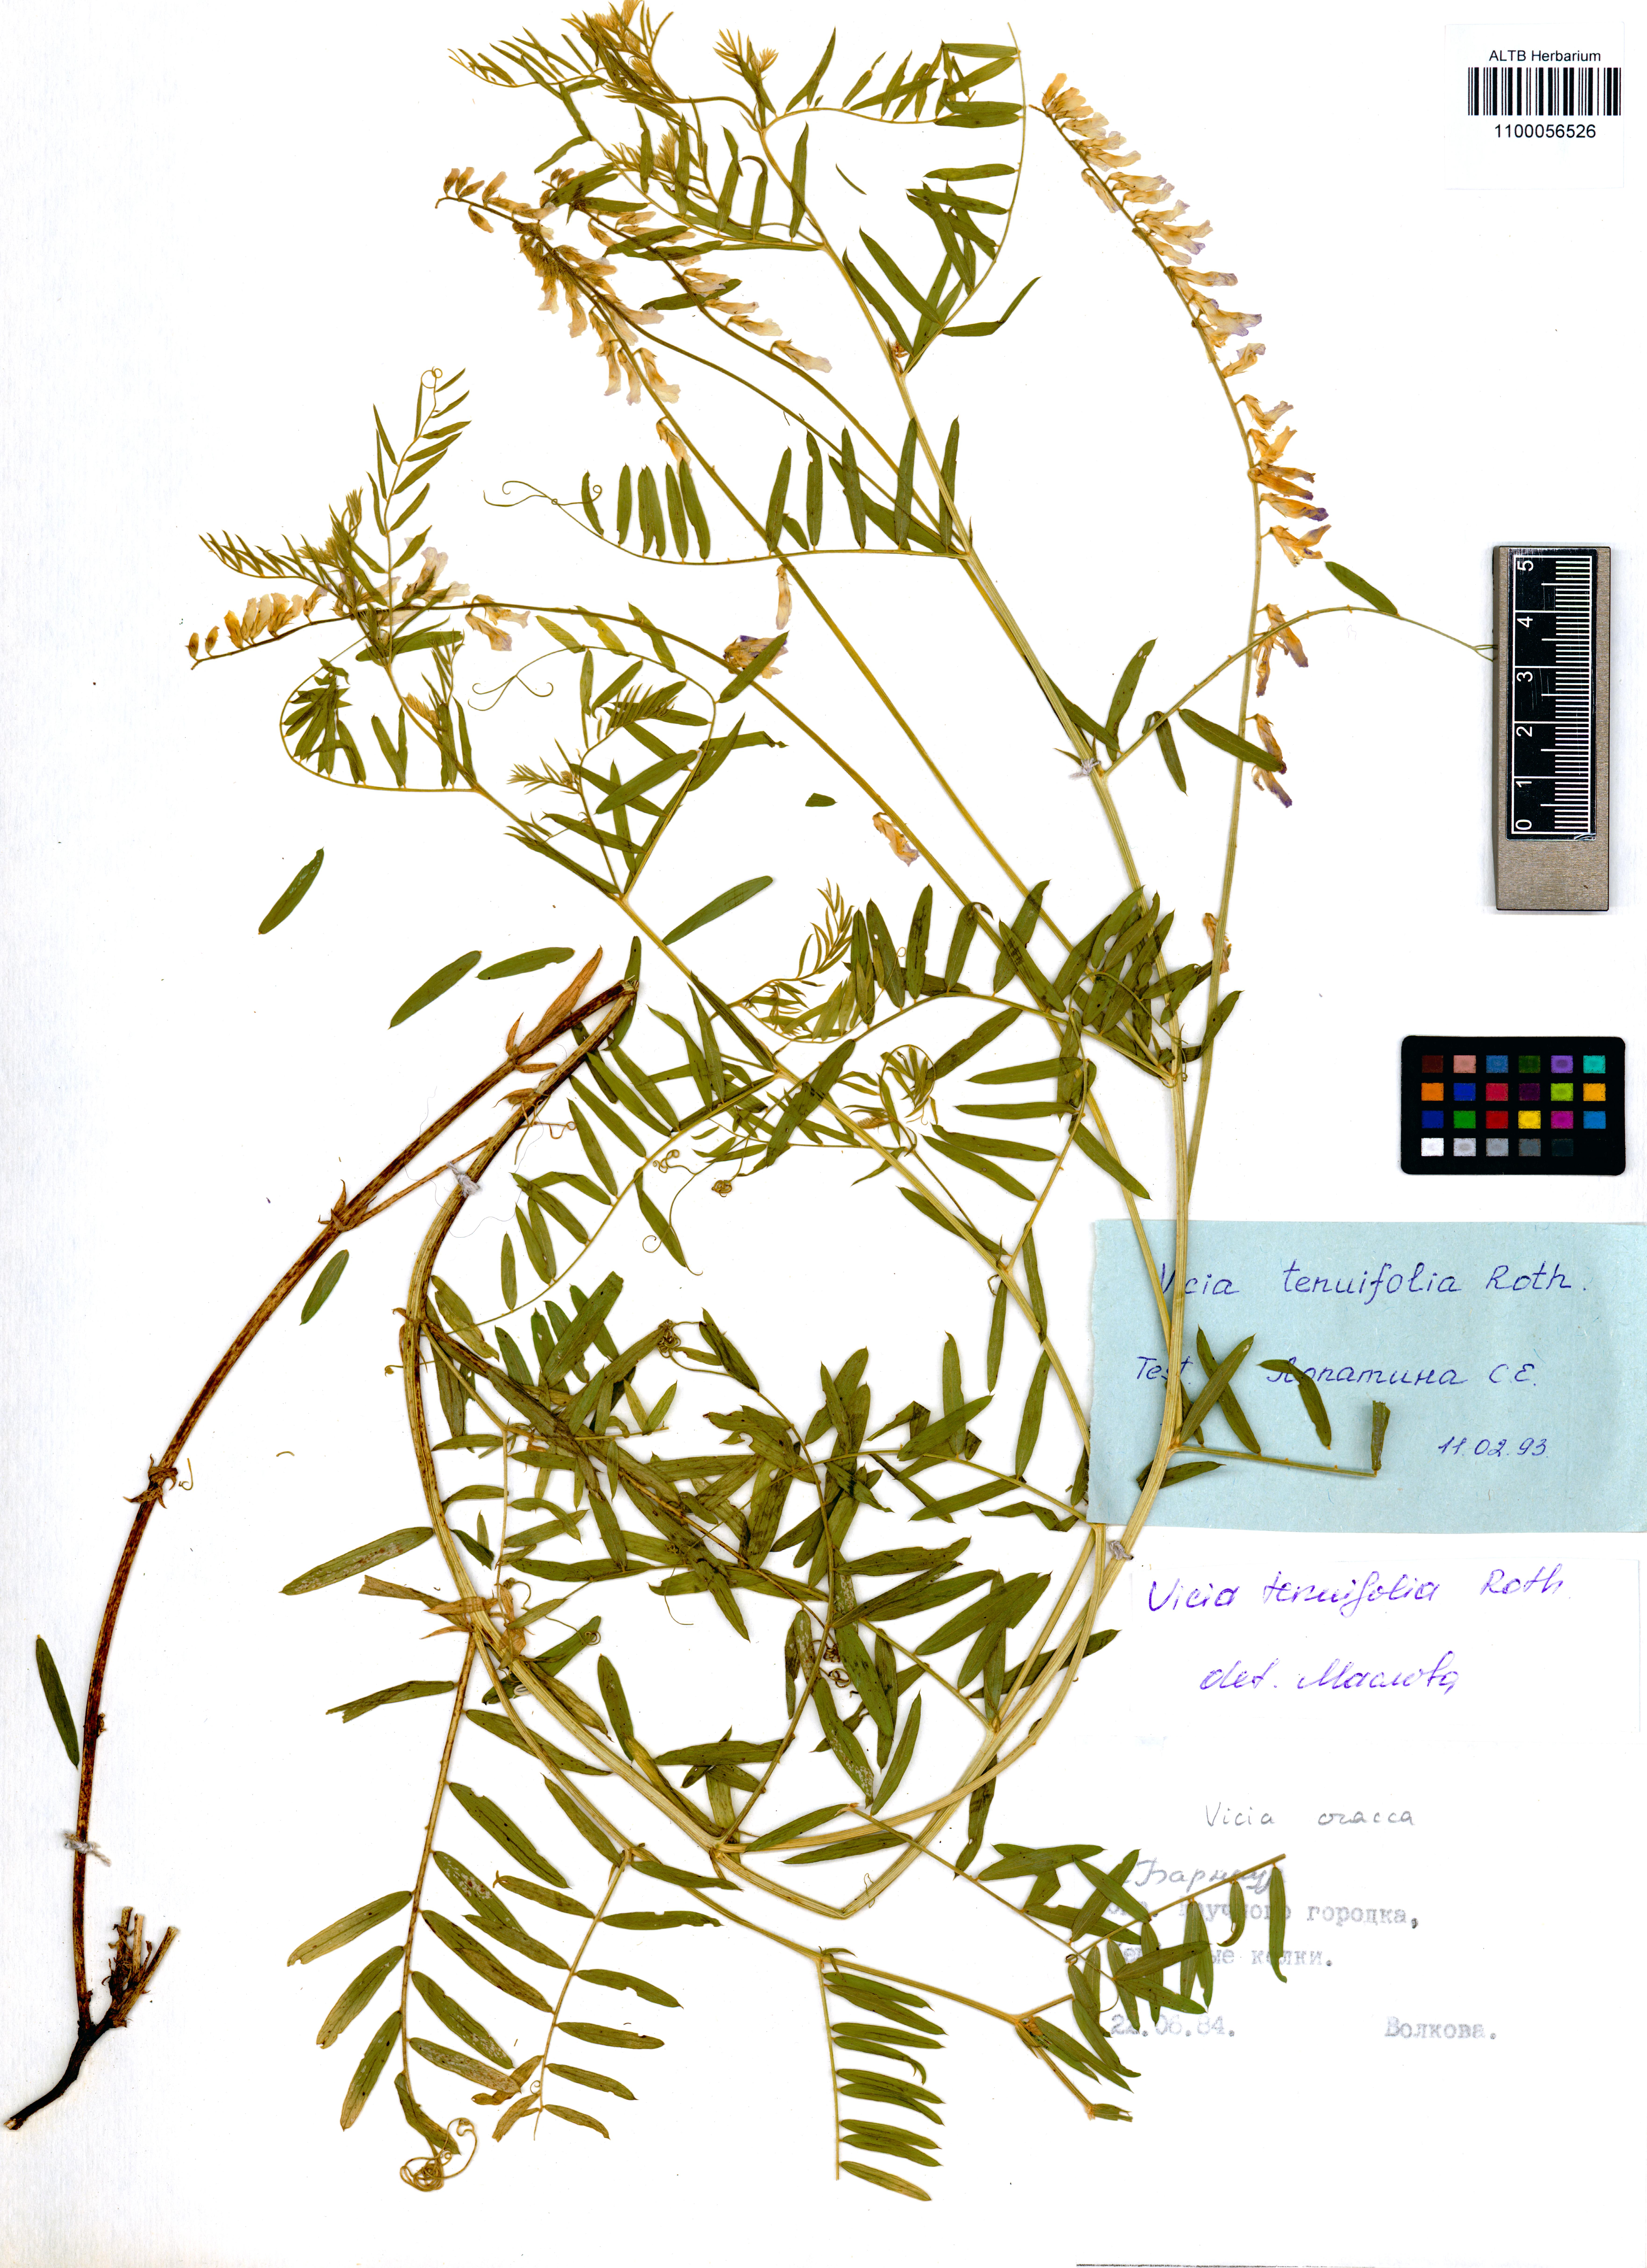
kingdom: Plantae
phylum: Tracheophyta
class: Magnoliopsida
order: Fabales
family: Fabaceae
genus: Vicia
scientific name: Vicia tenuifolia
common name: Fine-leaved vetch
